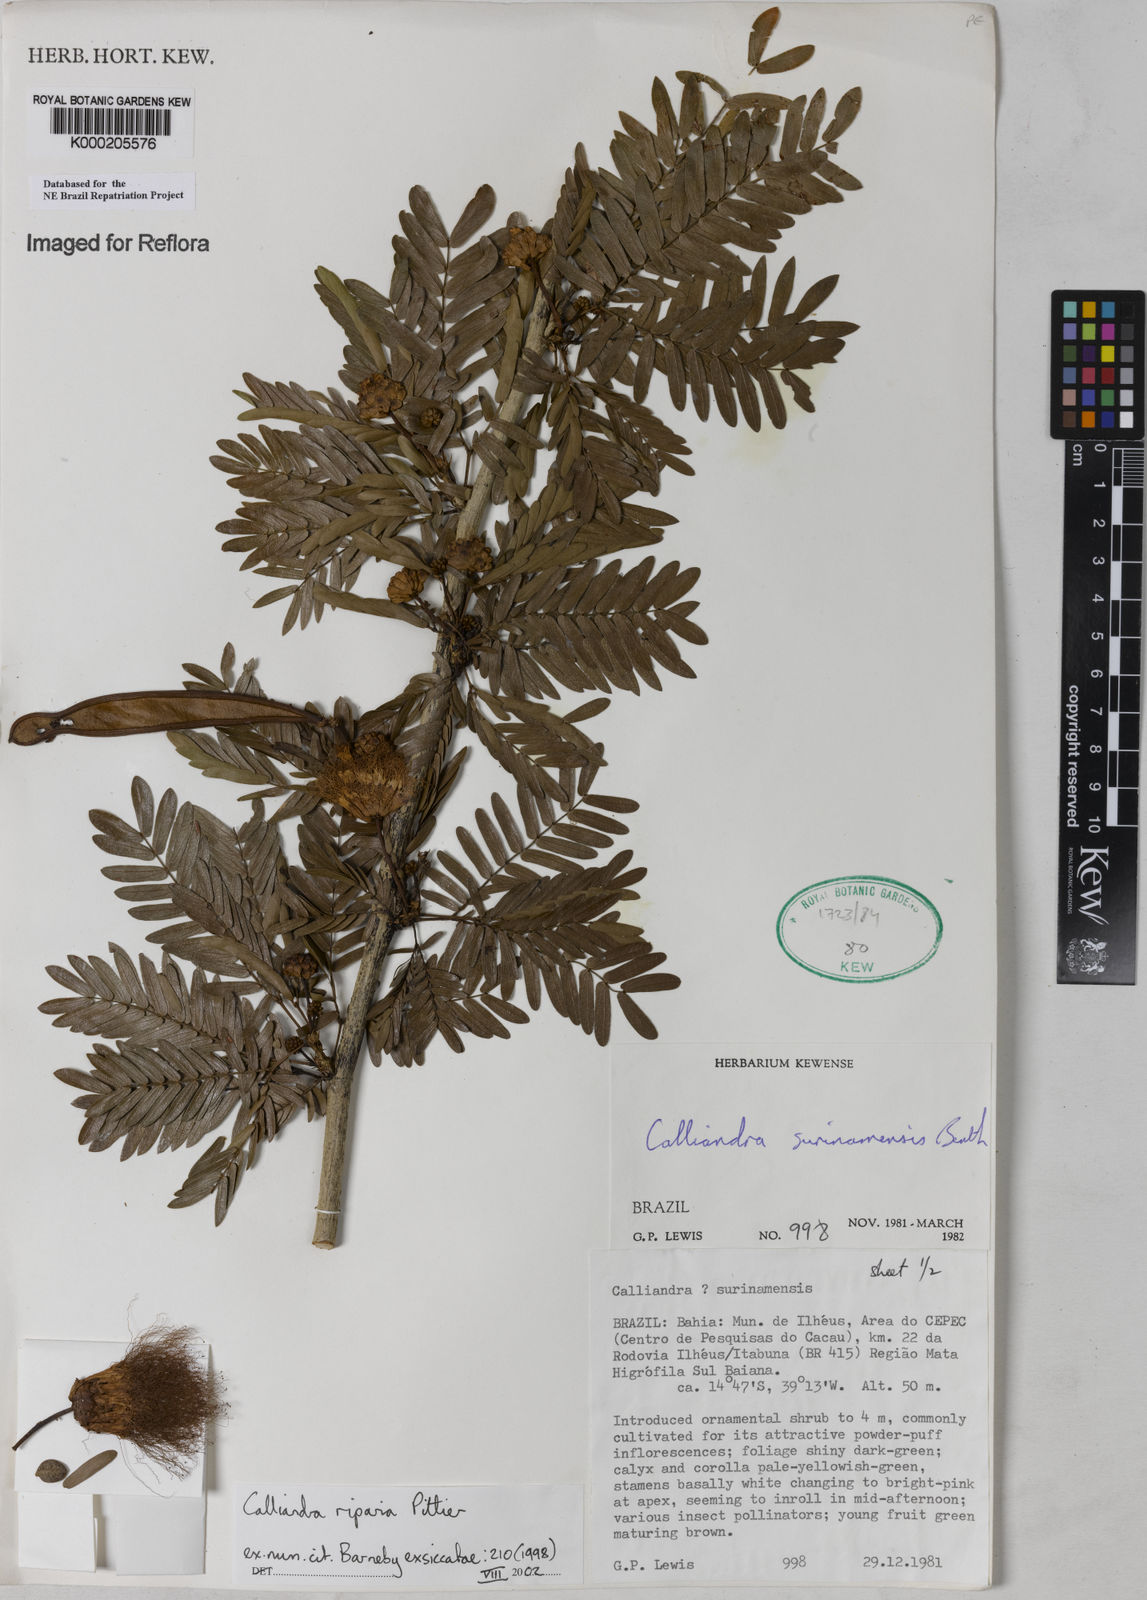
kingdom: Plantae
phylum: Tracheophyta
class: Magnoliopsida
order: Fabales
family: Fabaceae
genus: Calliandra
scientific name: Calliandra riparia
